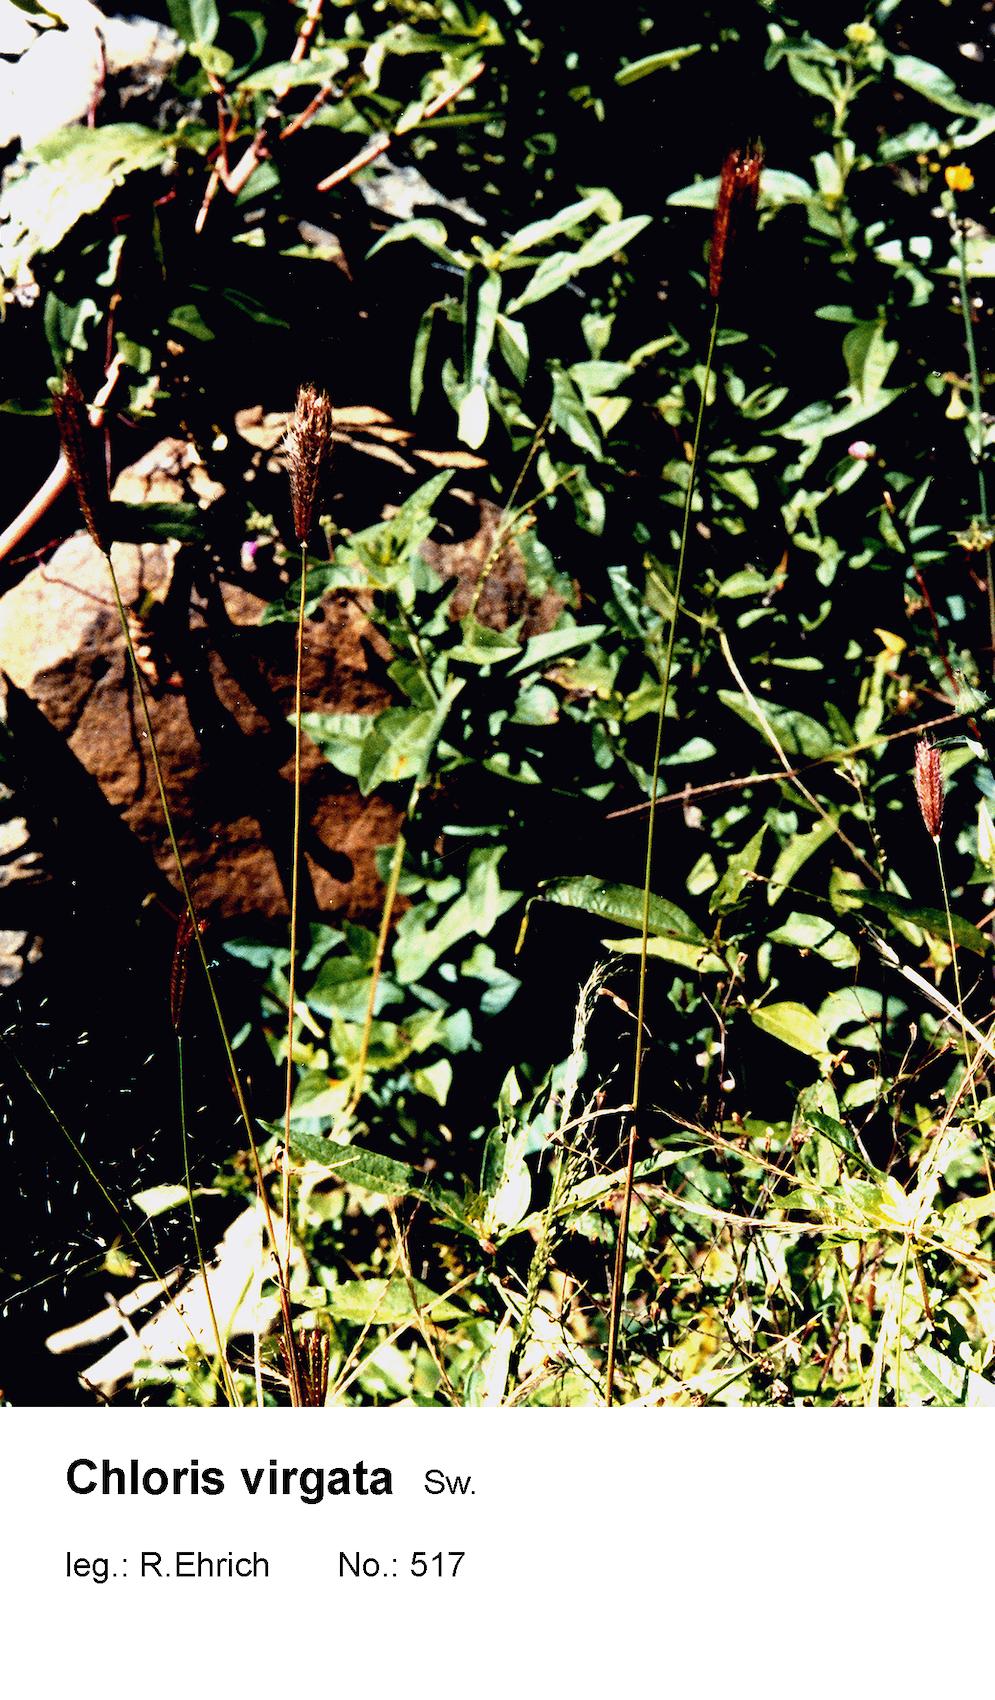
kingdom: Plantae
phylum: Tracheophyta
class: Liliopsida
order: Poales
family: Poaceae
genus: Chloris
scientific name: Chloris virgata
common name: Feathery rhodes-grass
